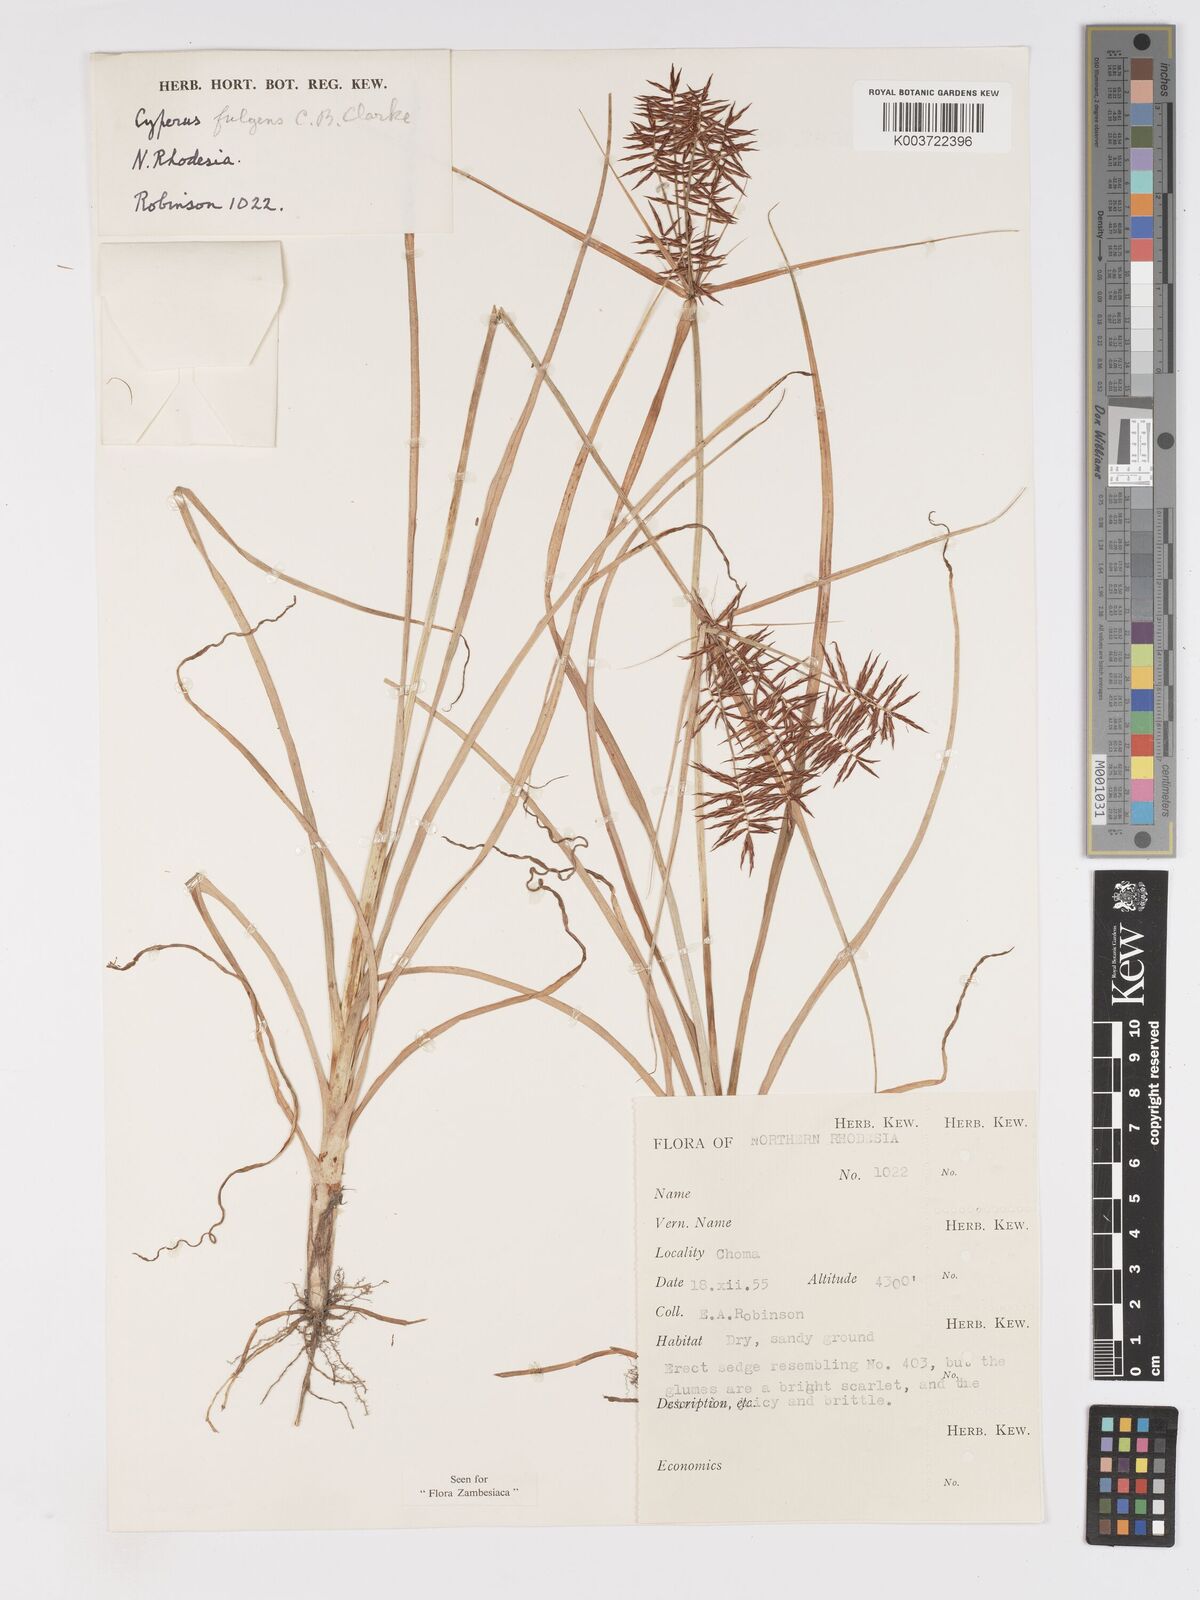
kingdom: Plantae
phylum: Tracheophyta
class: Liliopsida
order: Poales
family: Cyperaceae
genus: Cyperus
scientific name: Cyperus callistus
